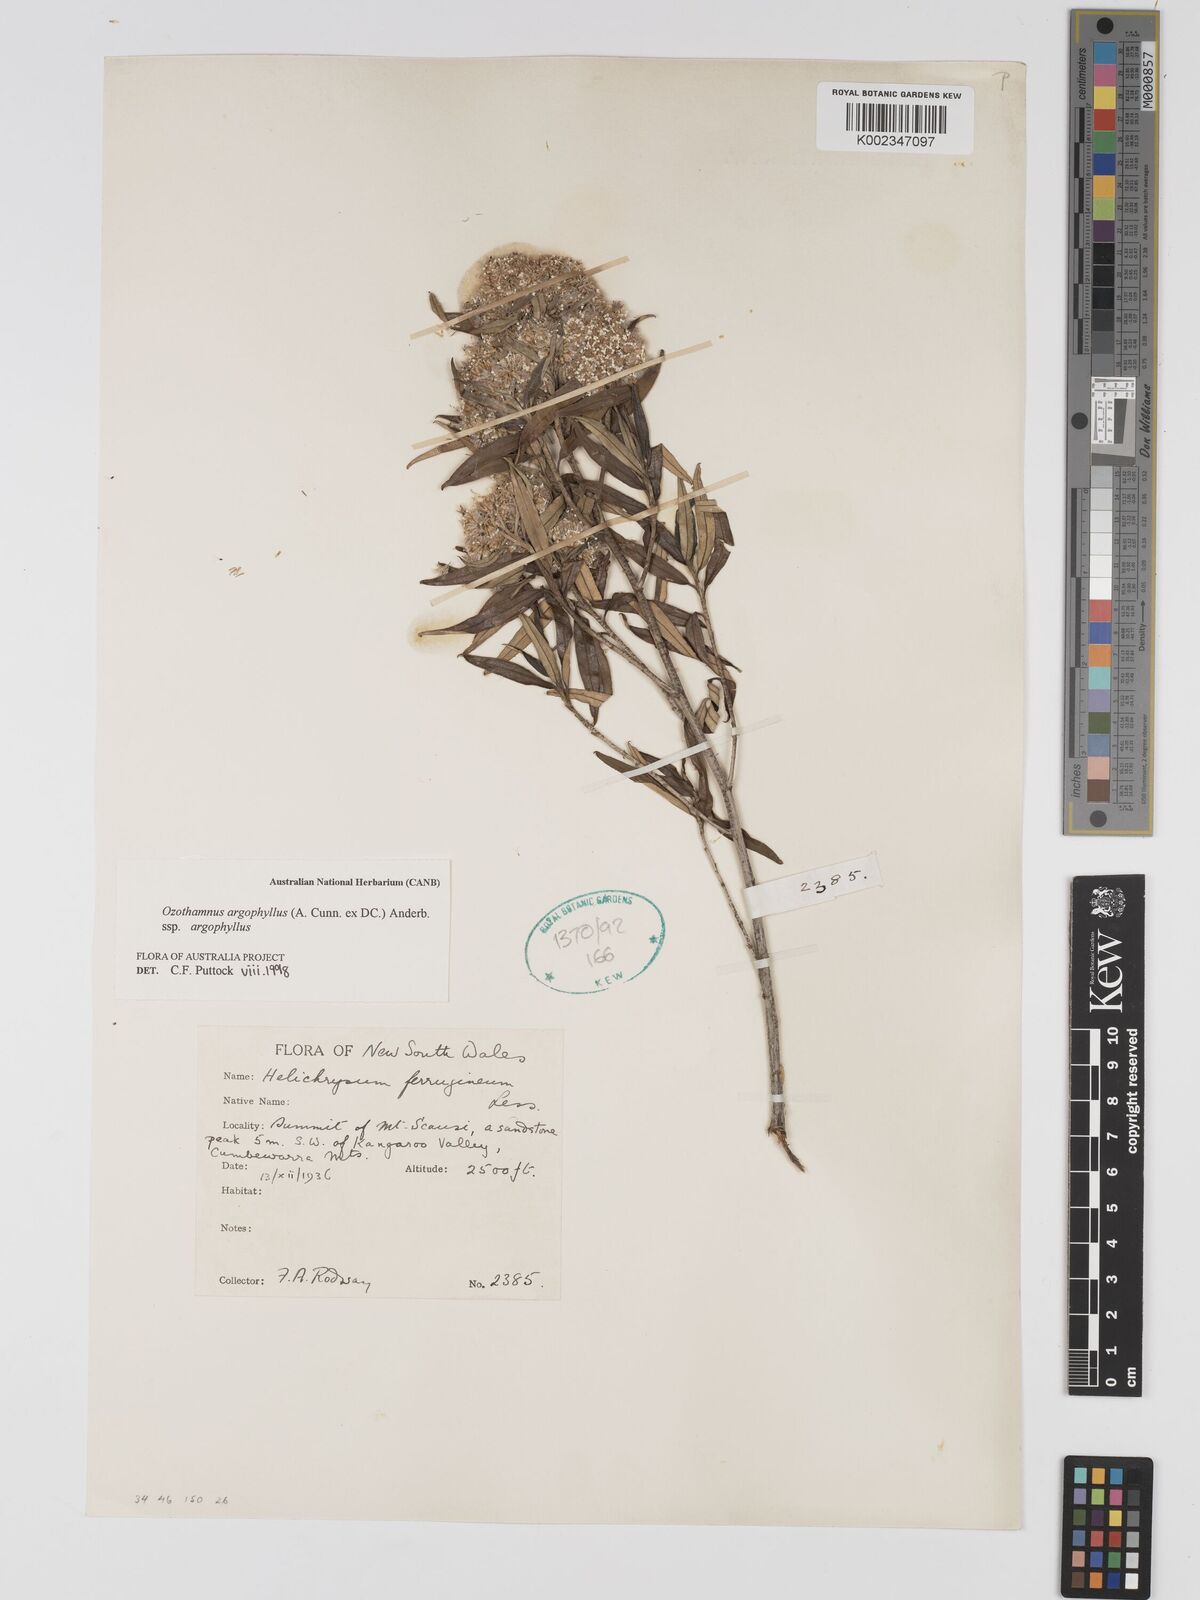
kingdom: Plantae
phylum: Tracheophyta
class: Magnoliopsida
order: Asterales
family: Asteraceae
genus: Ozothamnus
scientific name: Ozothamnus argophyllus
